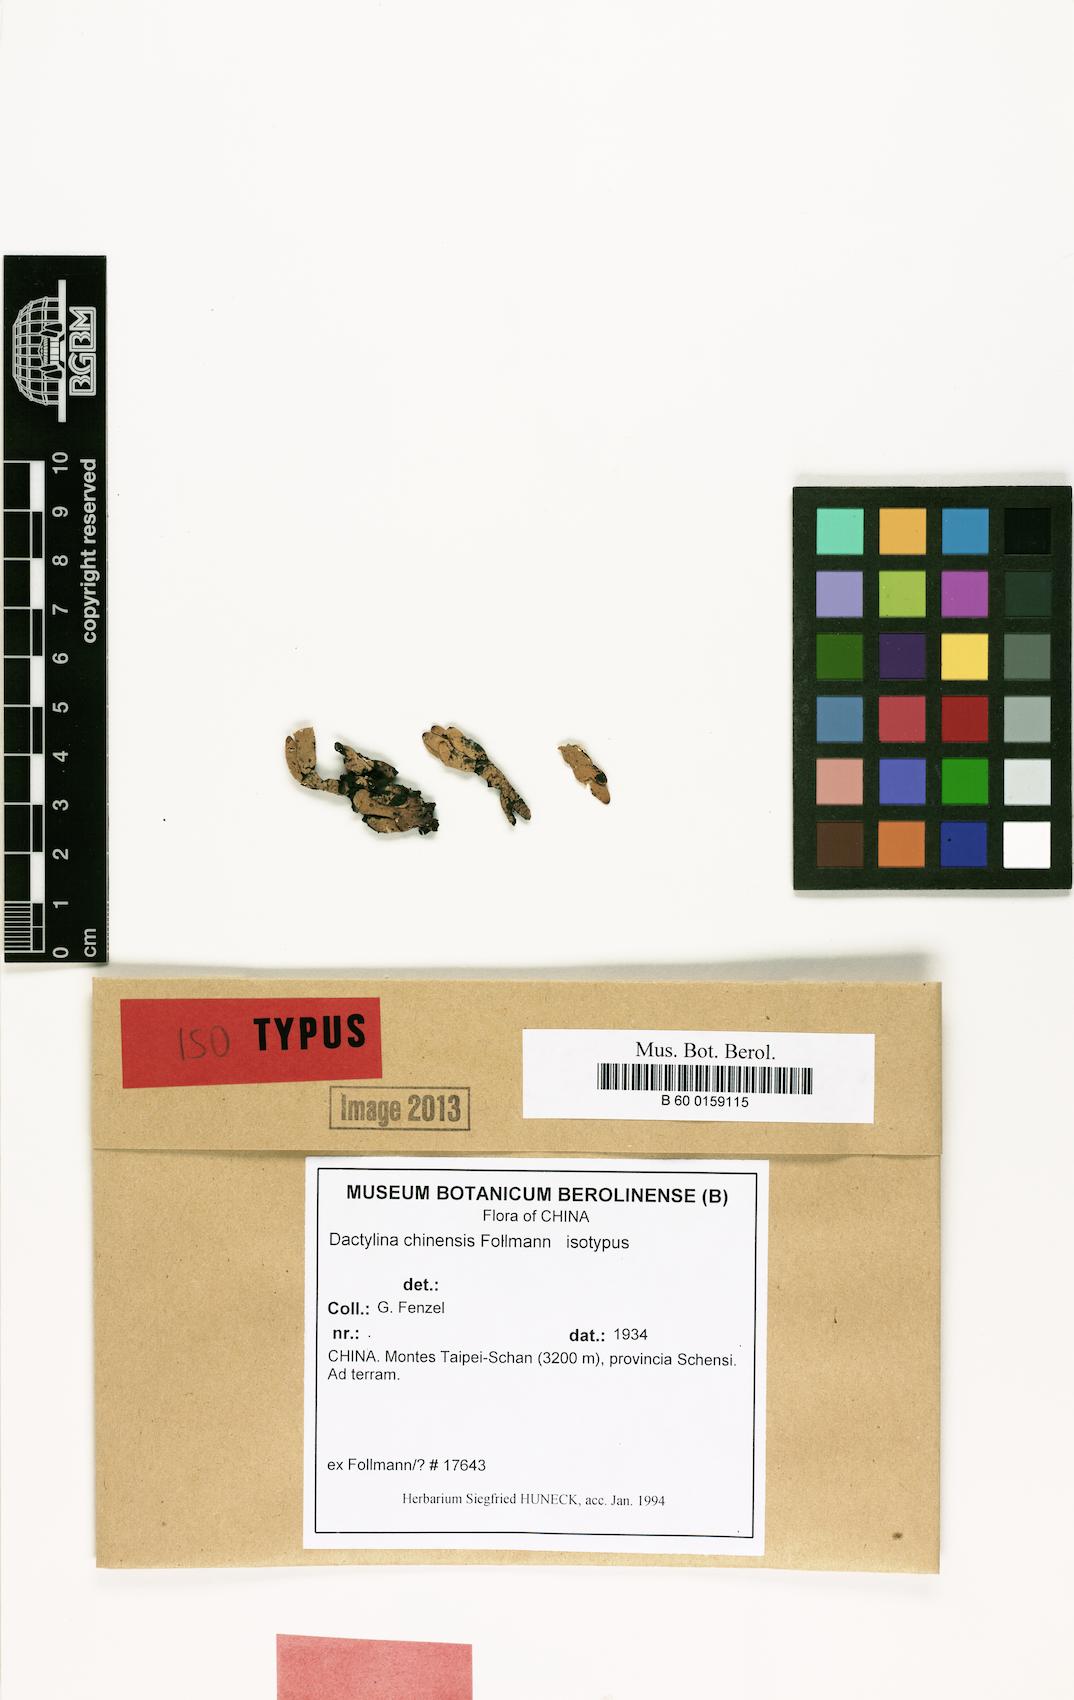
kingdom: Fungi
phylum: Ascomycota
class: Lecanoromycetes
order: Lecanorales
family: Parmeliaceae
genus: Dactylina
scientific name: Dactylina
